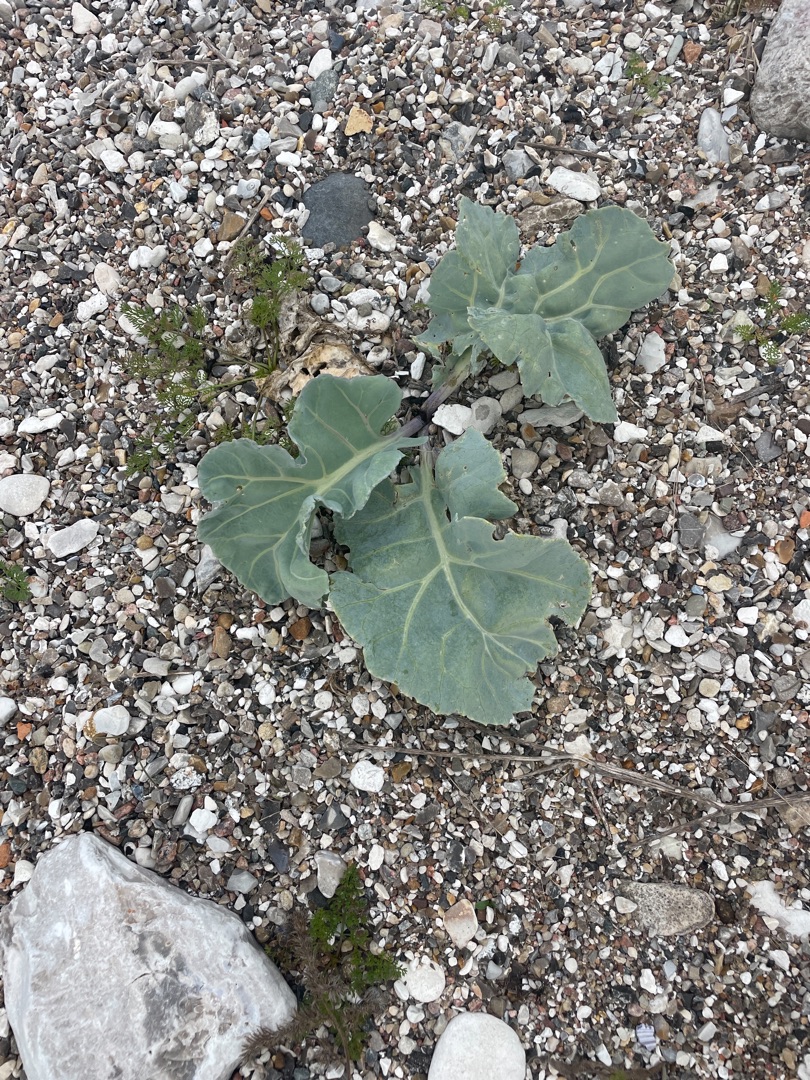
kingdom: Plantae
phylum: Tracheophyta
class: Magnoliopsida
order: Brassicales
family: Brassicaceae
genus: Crambe
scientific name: Crambe maritima
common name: Strandkål
